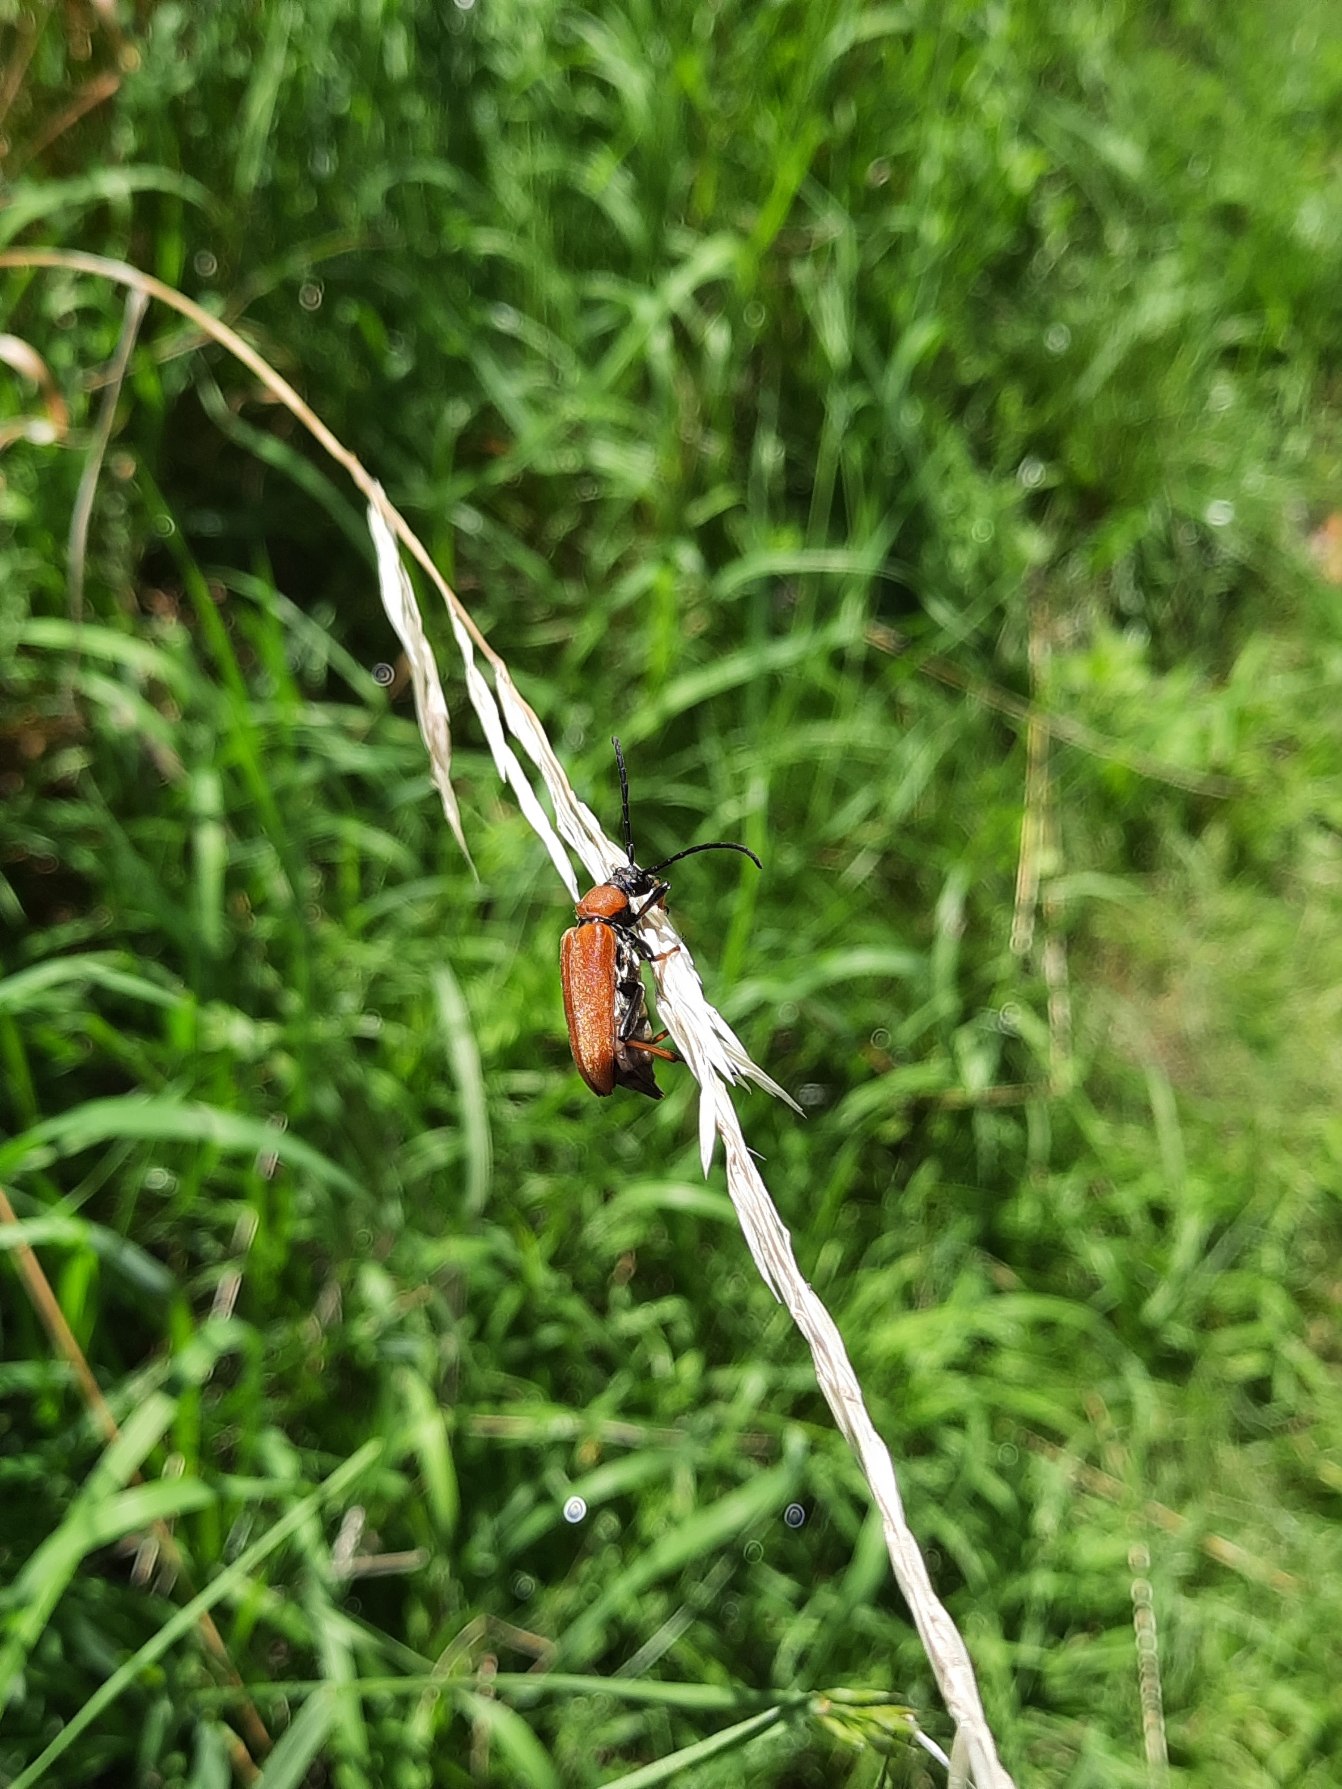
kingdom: Animalia
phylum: Arthropoda
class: Insecta
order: Coleoptera
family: Cerambycidae
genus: Stictoleptura
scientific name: Stictoleptura rubra
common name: Rød blomsterbuk
